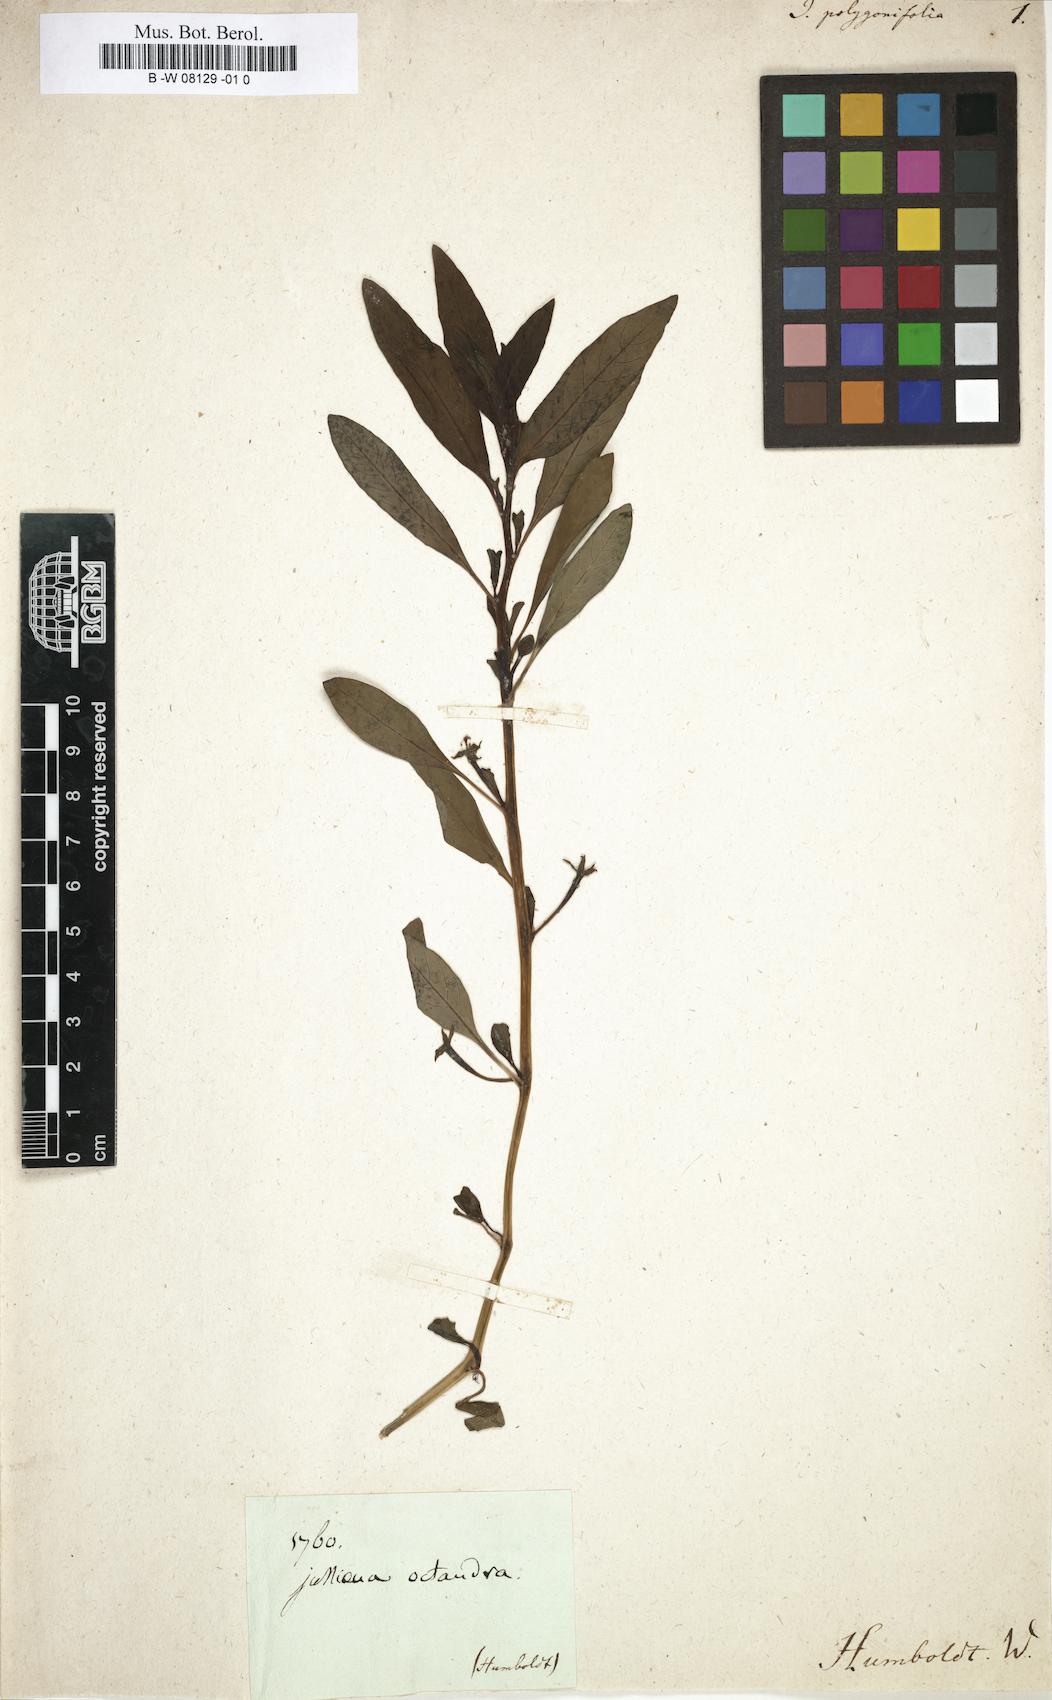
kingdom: Plantae
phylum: Tracheophyta
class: Magnoliopsida
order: Myrtales
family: Onagraceae
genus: Ludwigia
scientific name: Ludwigia peploides
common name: Floating primrose-willow
